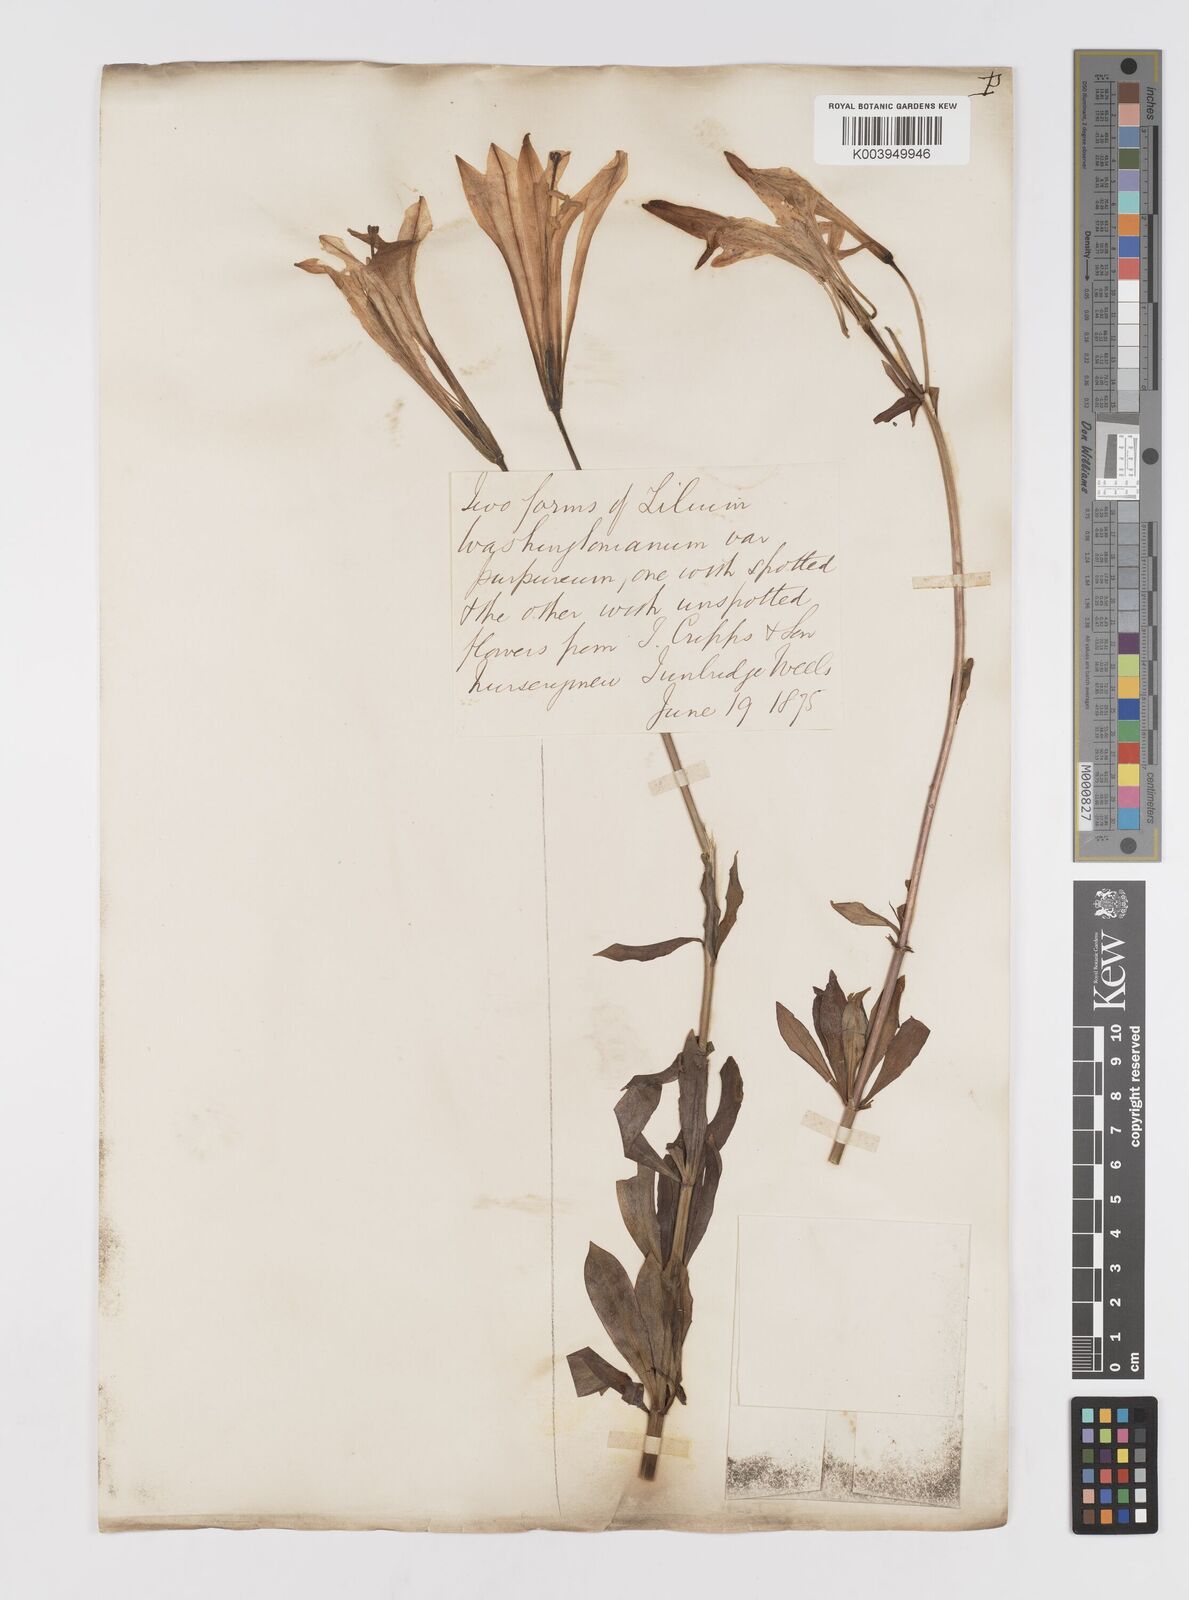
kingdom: Plantae
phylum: Tracheophyta
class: Liliopsida
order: Liliales
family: Liliaceae
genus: Lilium
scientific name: Lilium rubescens
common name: Chamise lily
